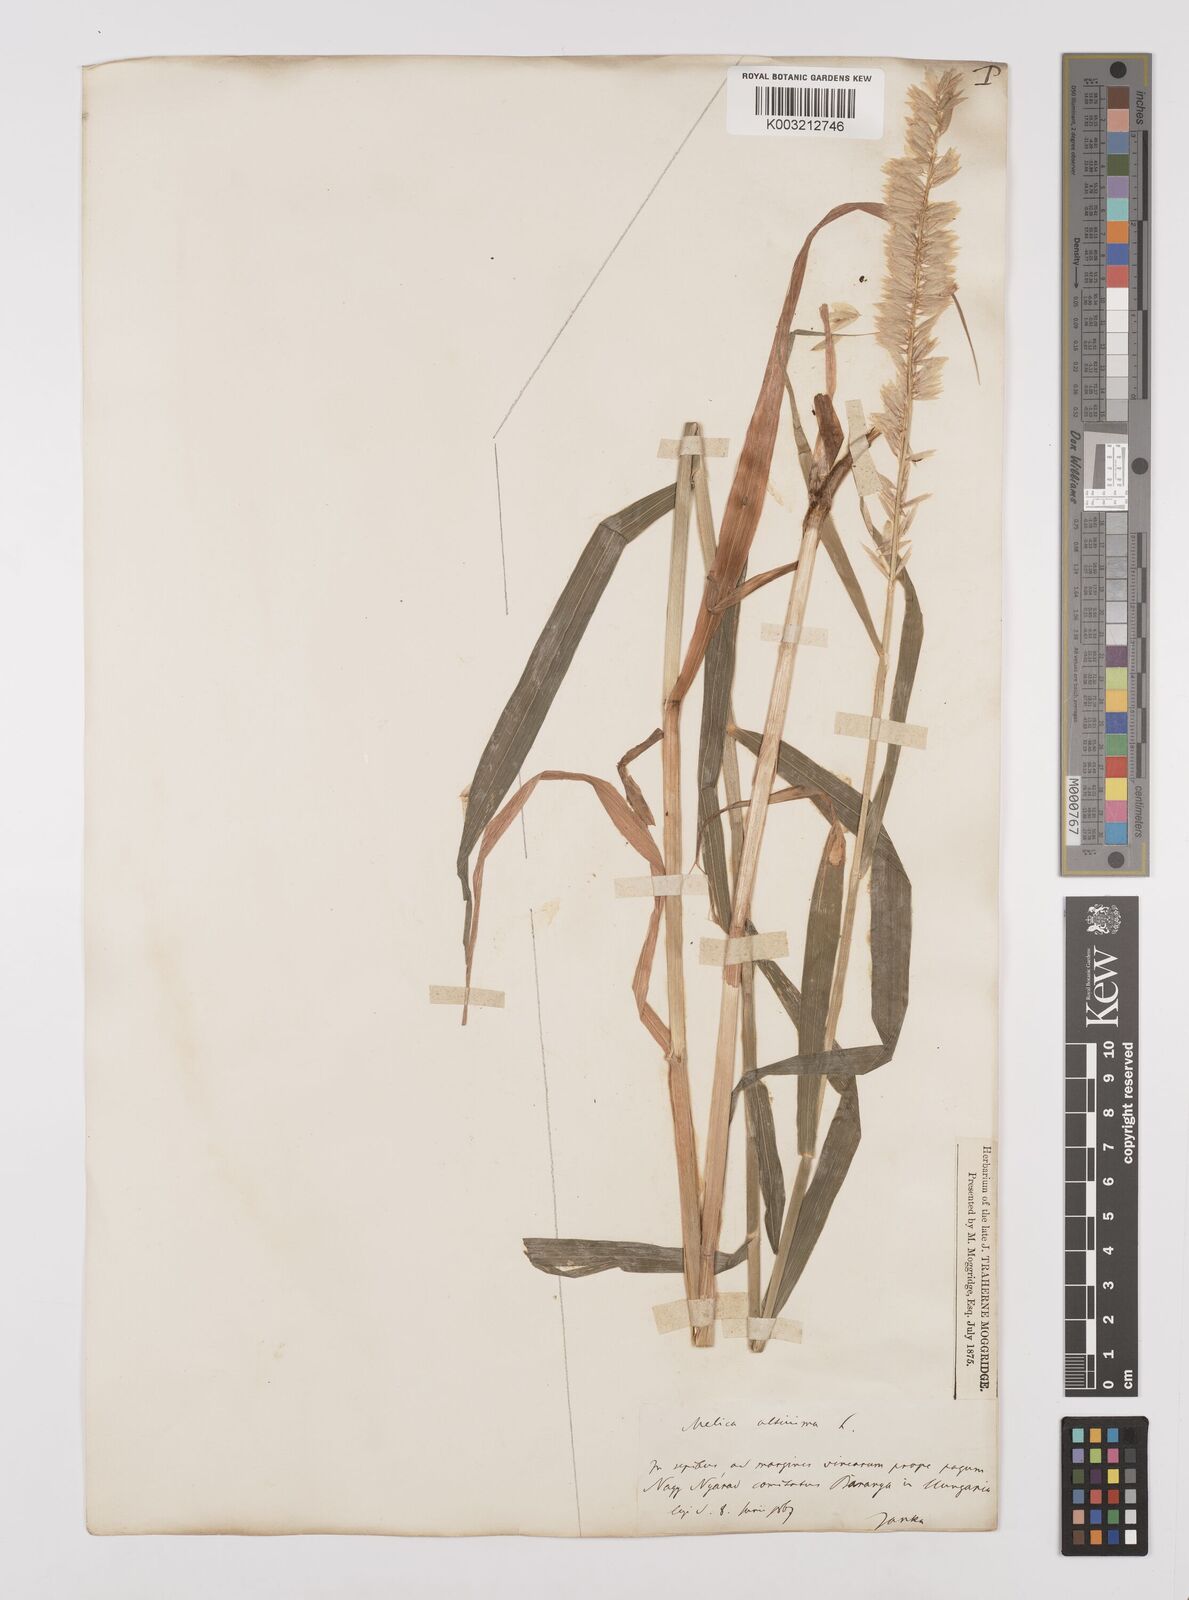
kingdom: Plantae
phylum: Tracheophyta
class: Liliopsida
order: Poales
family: Poaceae
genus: Melica
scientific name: Melica altissima
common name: Siberian melicgrass
